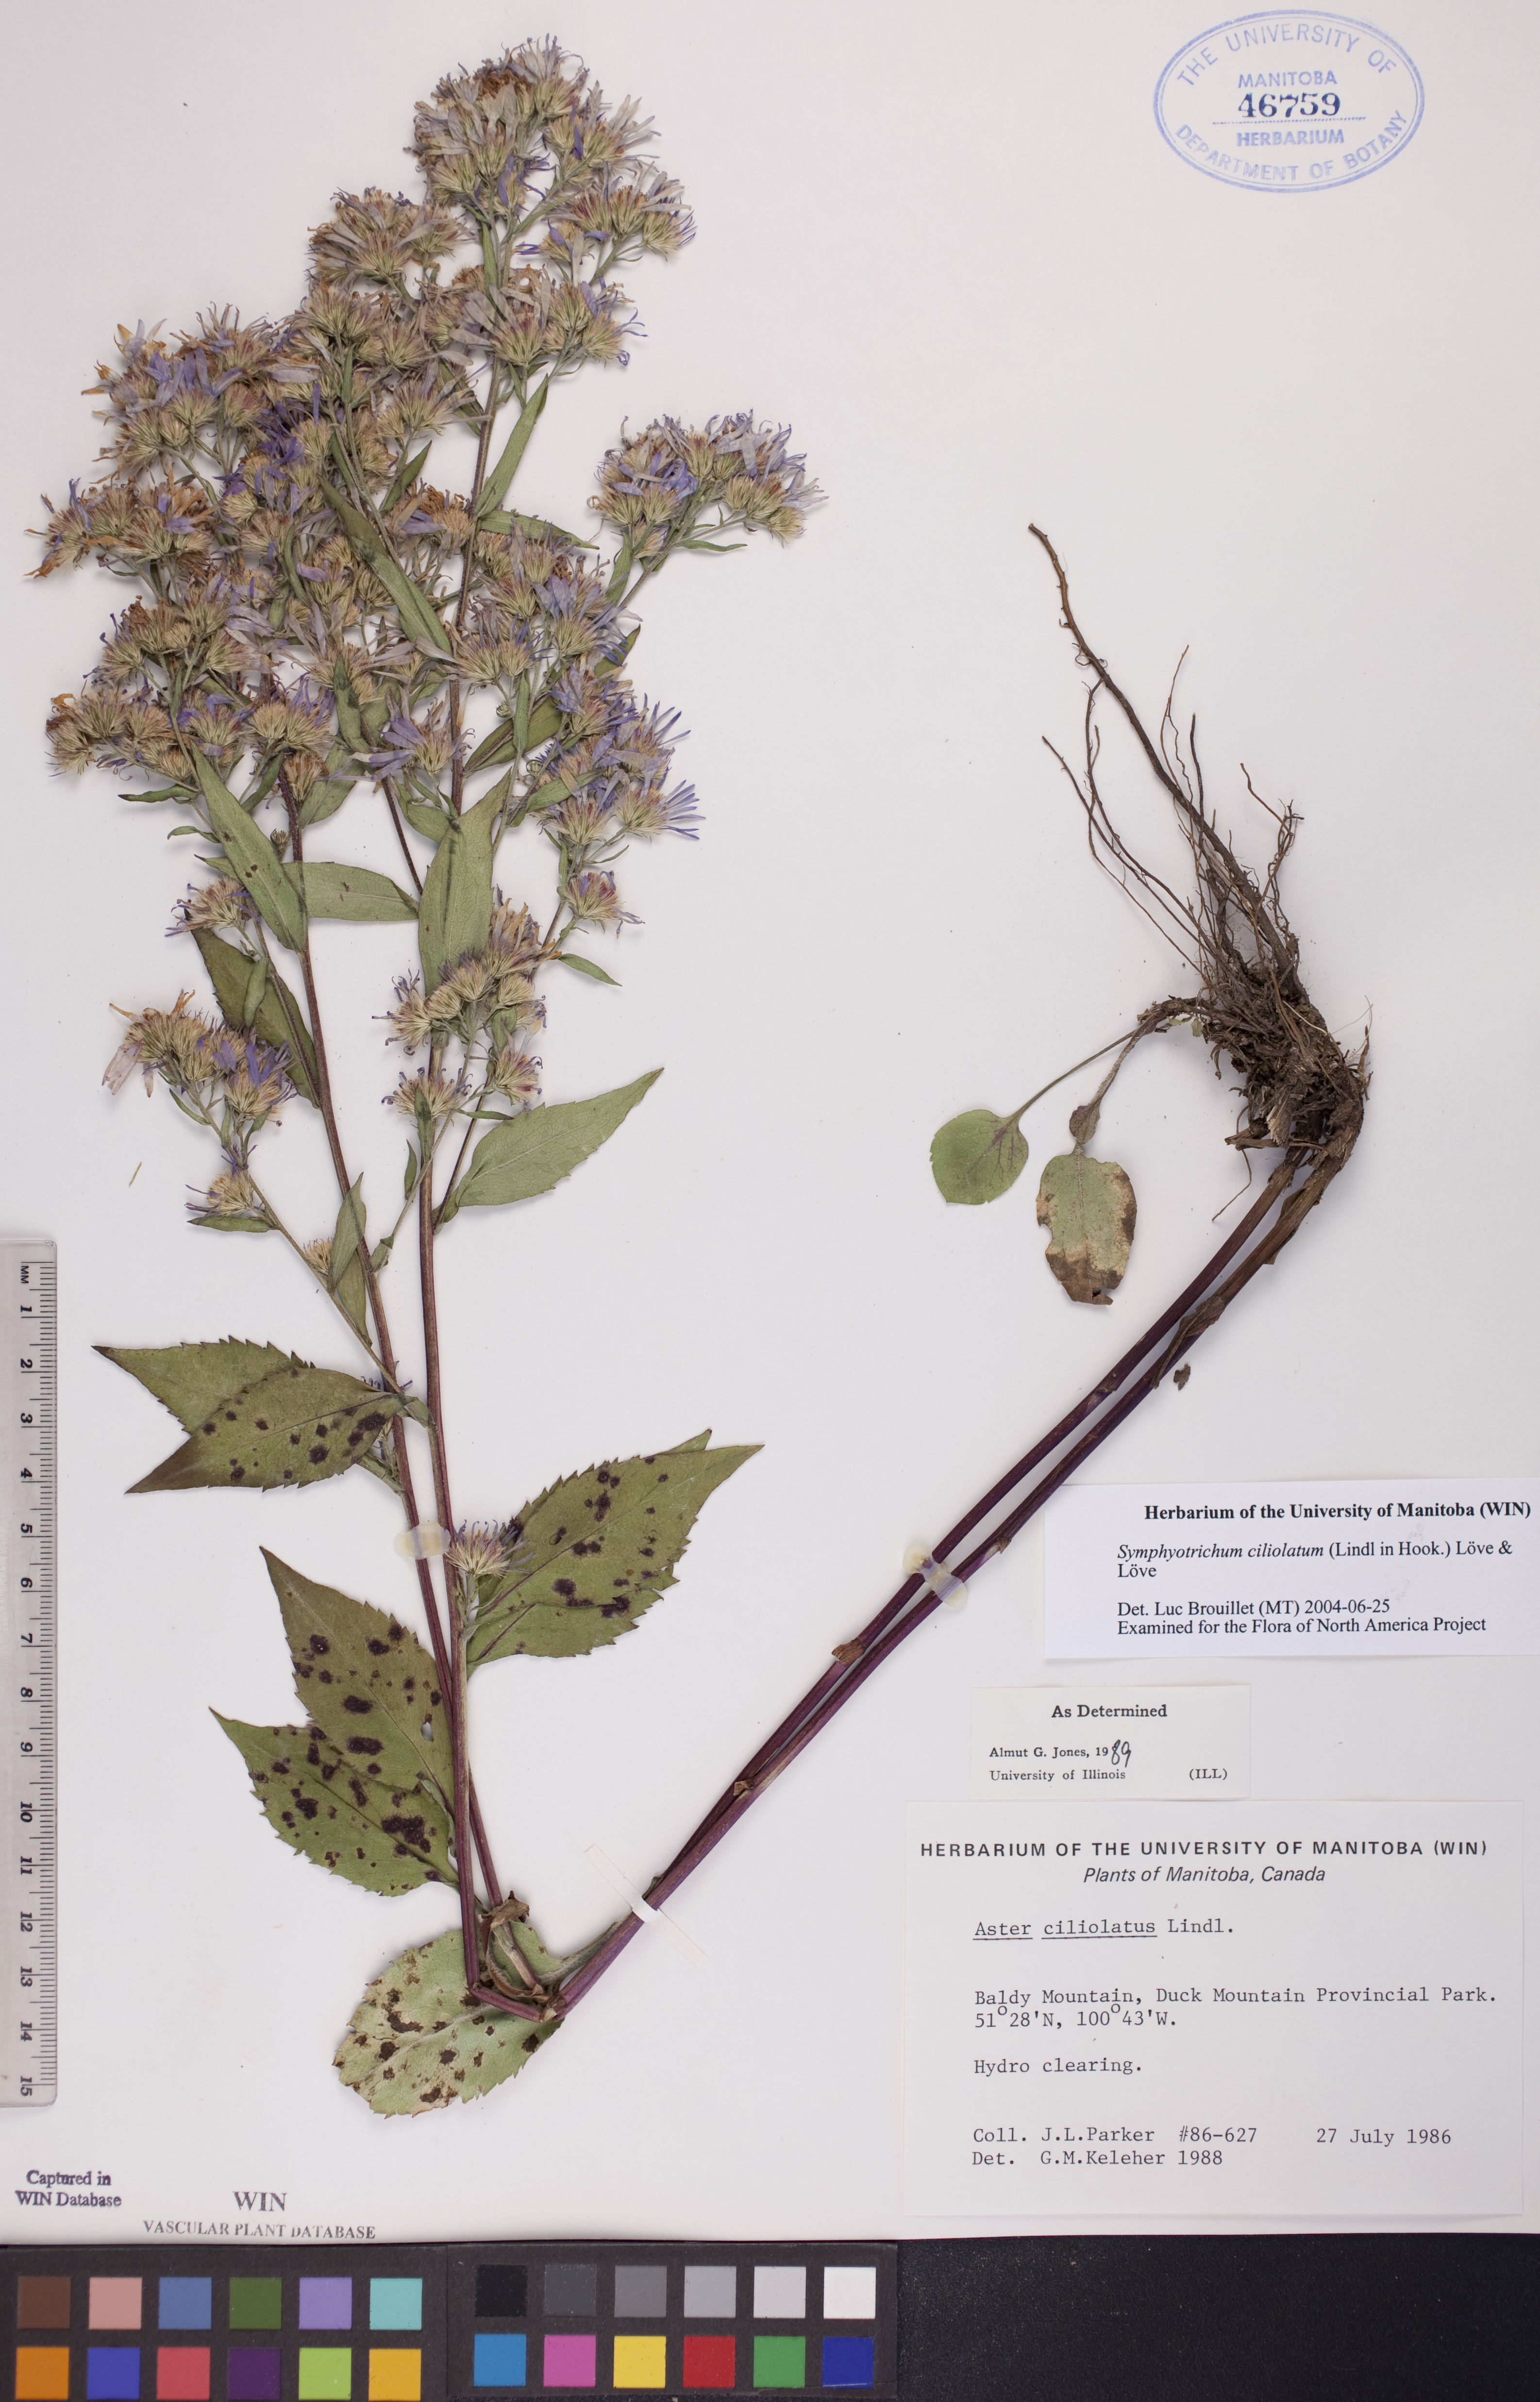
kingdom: Plantae
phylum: Tracheophyta
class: Magnoliopsida
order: Asterales
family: Asteraceae
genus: Symphyotrichum
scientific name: Symphyotrichum ciliolatum
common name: Fringed blue aster
